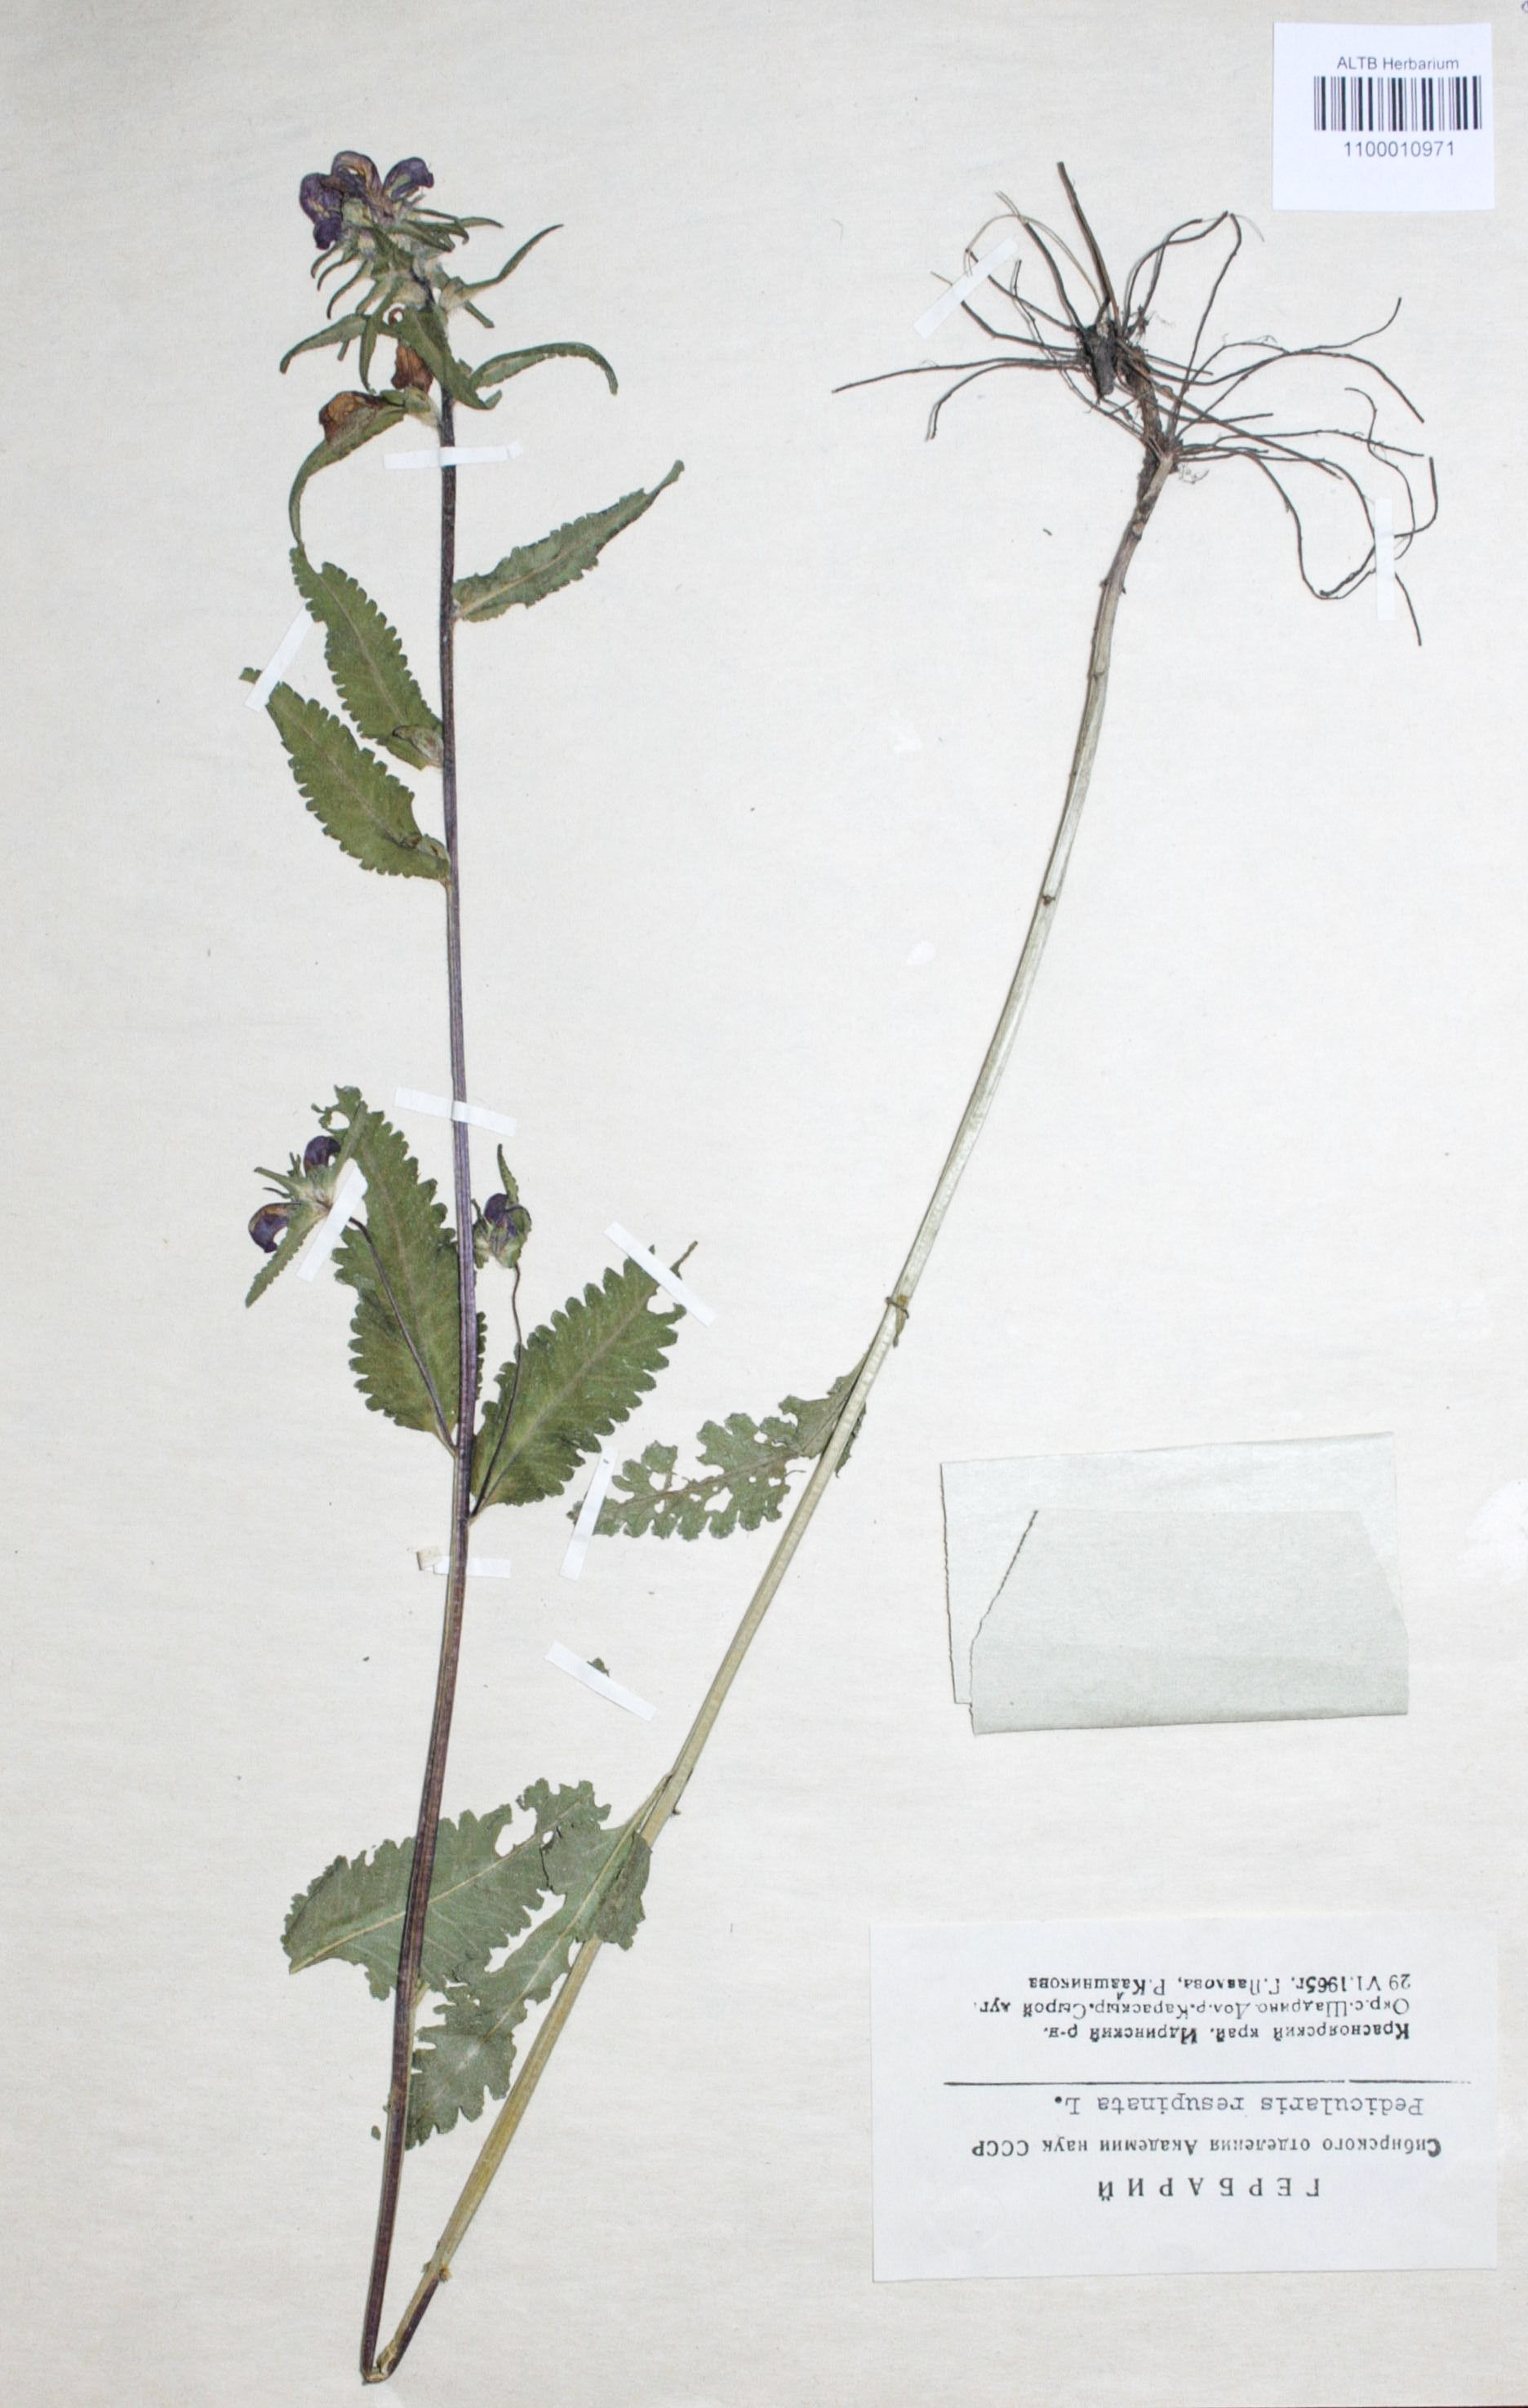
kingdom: Plantae
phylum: Tracheophyta
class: Magnoliopsida
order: Lamiales
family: Orobanchaceae
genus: Pedicularis
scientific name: Pedicularis resupinata
